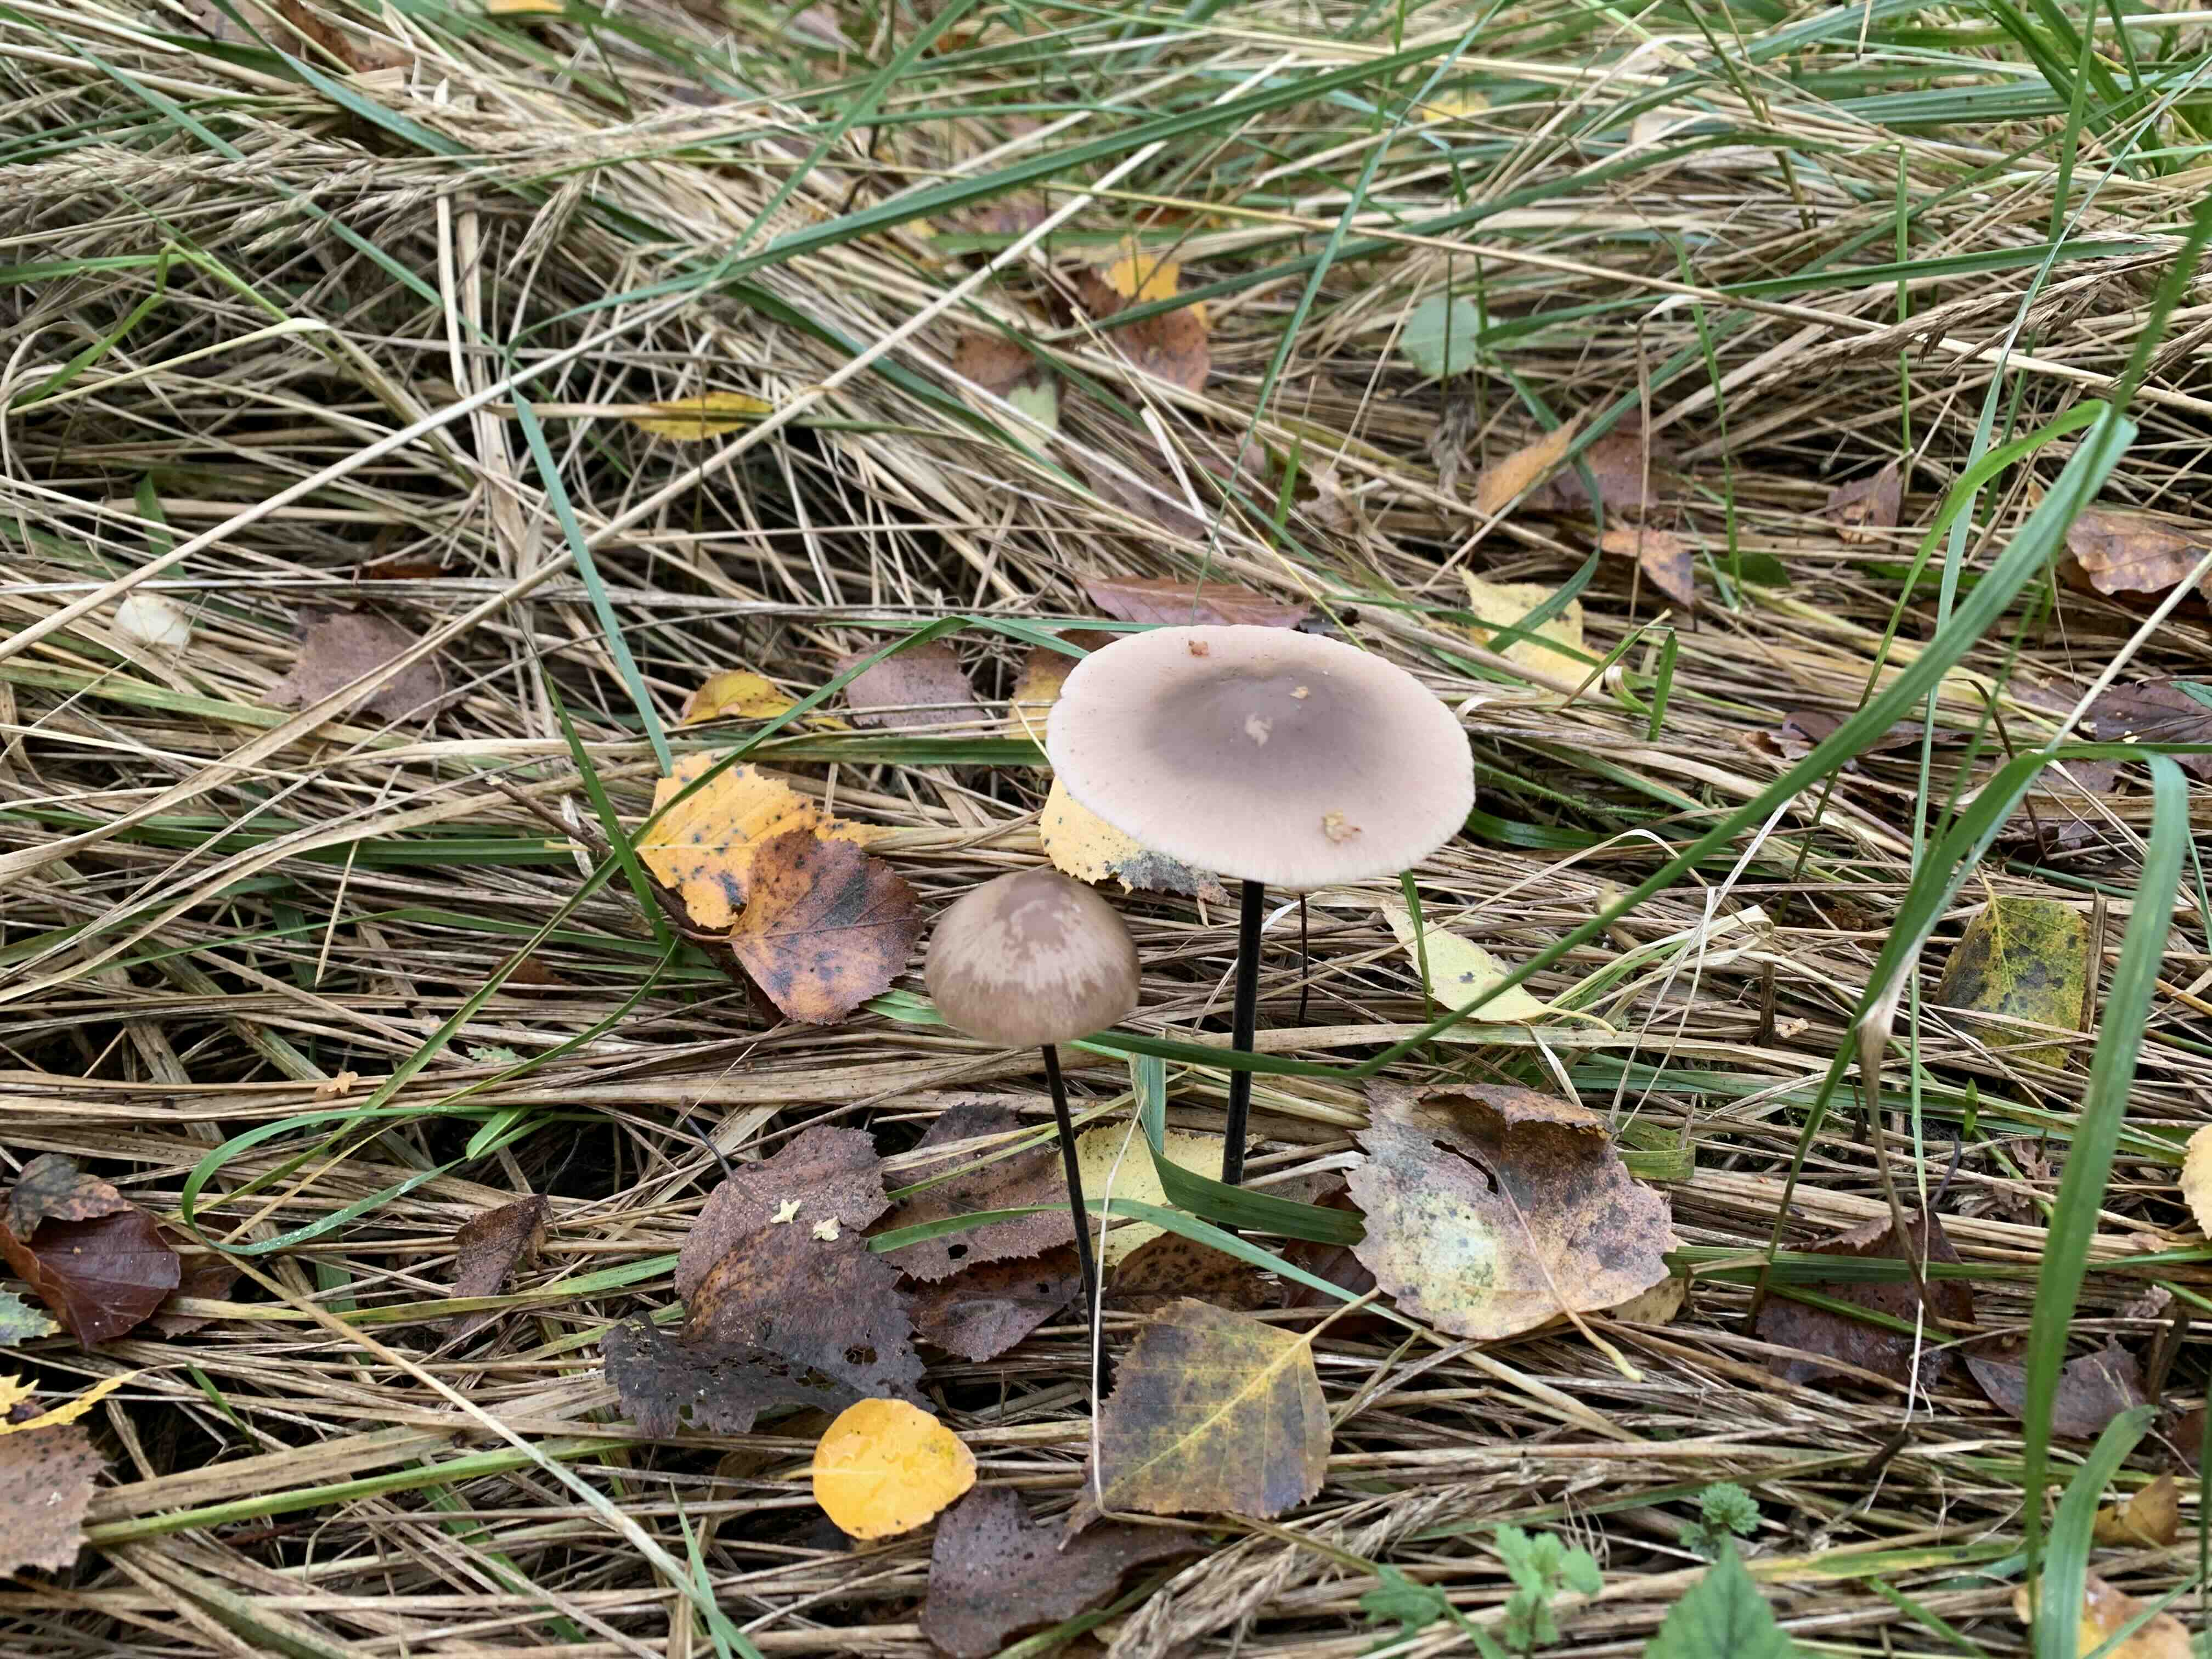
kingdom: Fungi
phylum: Basidiomycota
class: Agaricomycetes
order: Agaricales
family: Omphalotaceae
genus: Mycetinis
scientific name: Mycetinis alliaceus
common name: stor løghat
